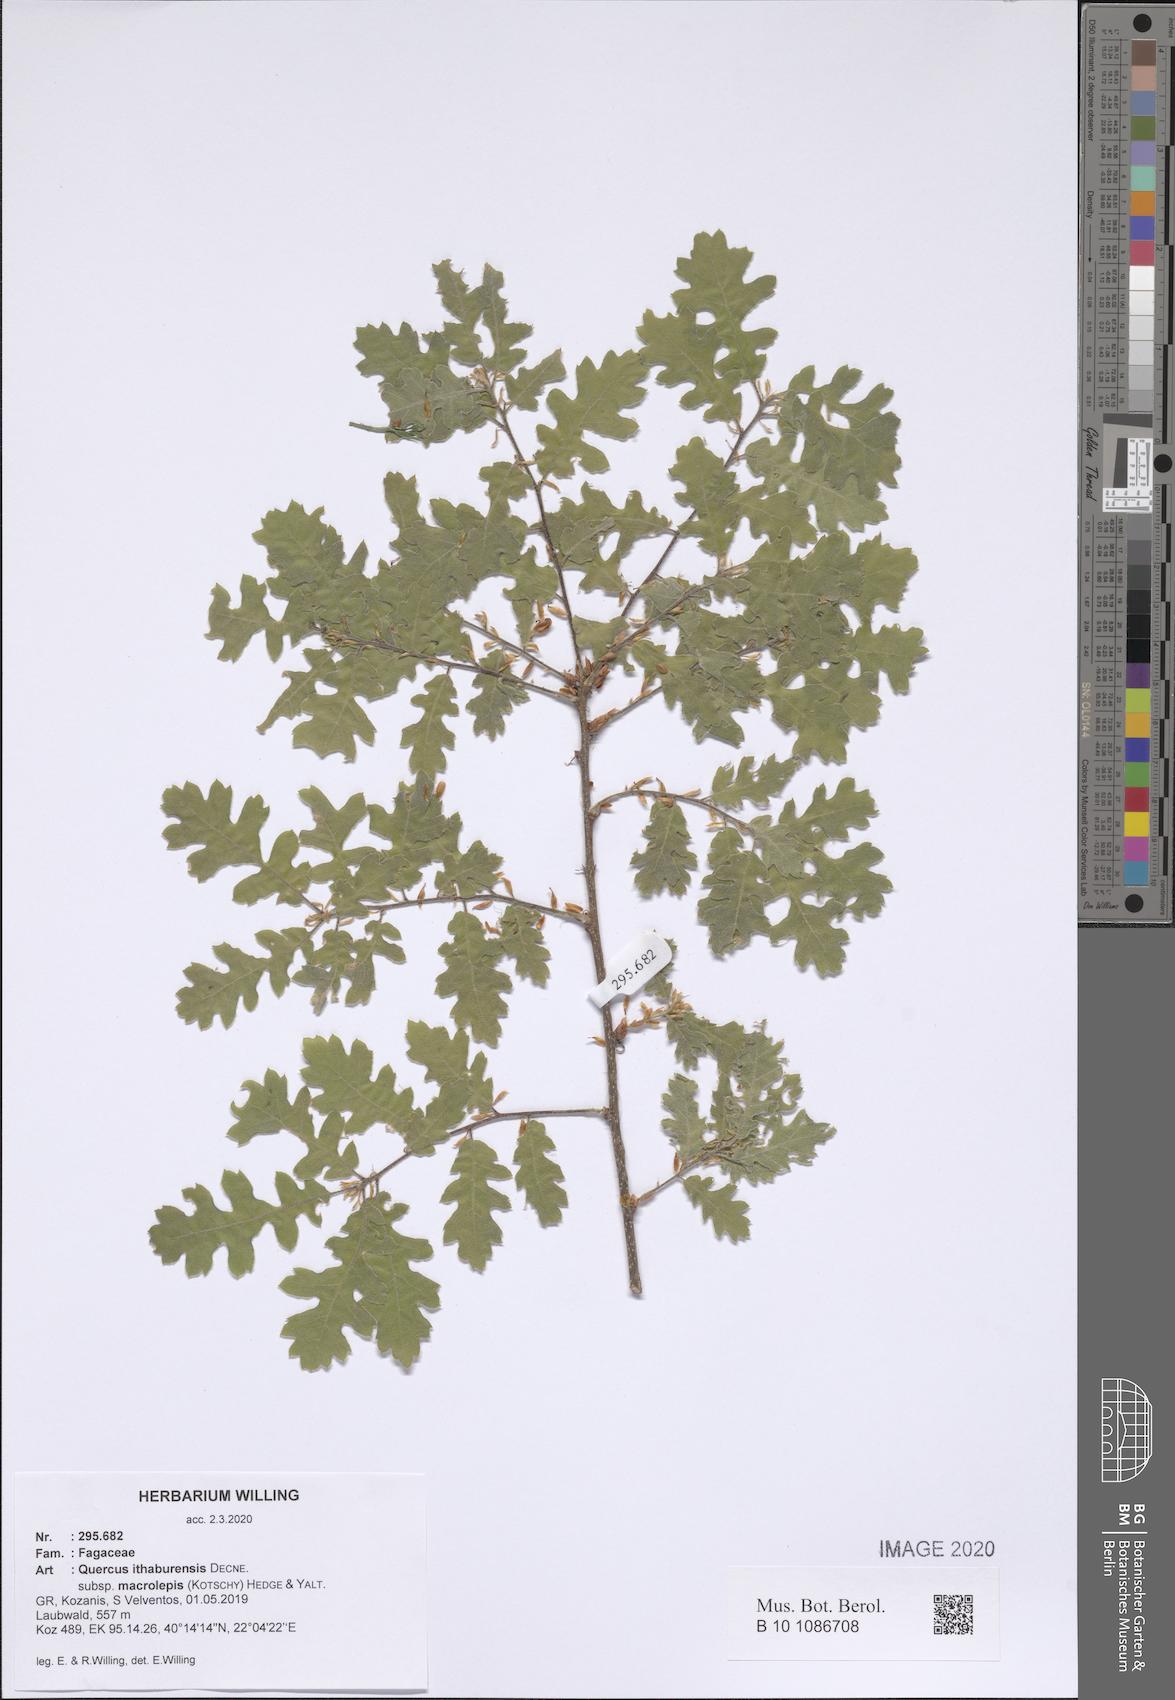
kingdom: Plantae
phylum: Tracheophyta
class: Magnoliopsida
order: Fagales
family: Fagaceae
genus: Quercus
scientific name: Quercus ithaburensis
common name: Tabor oak
